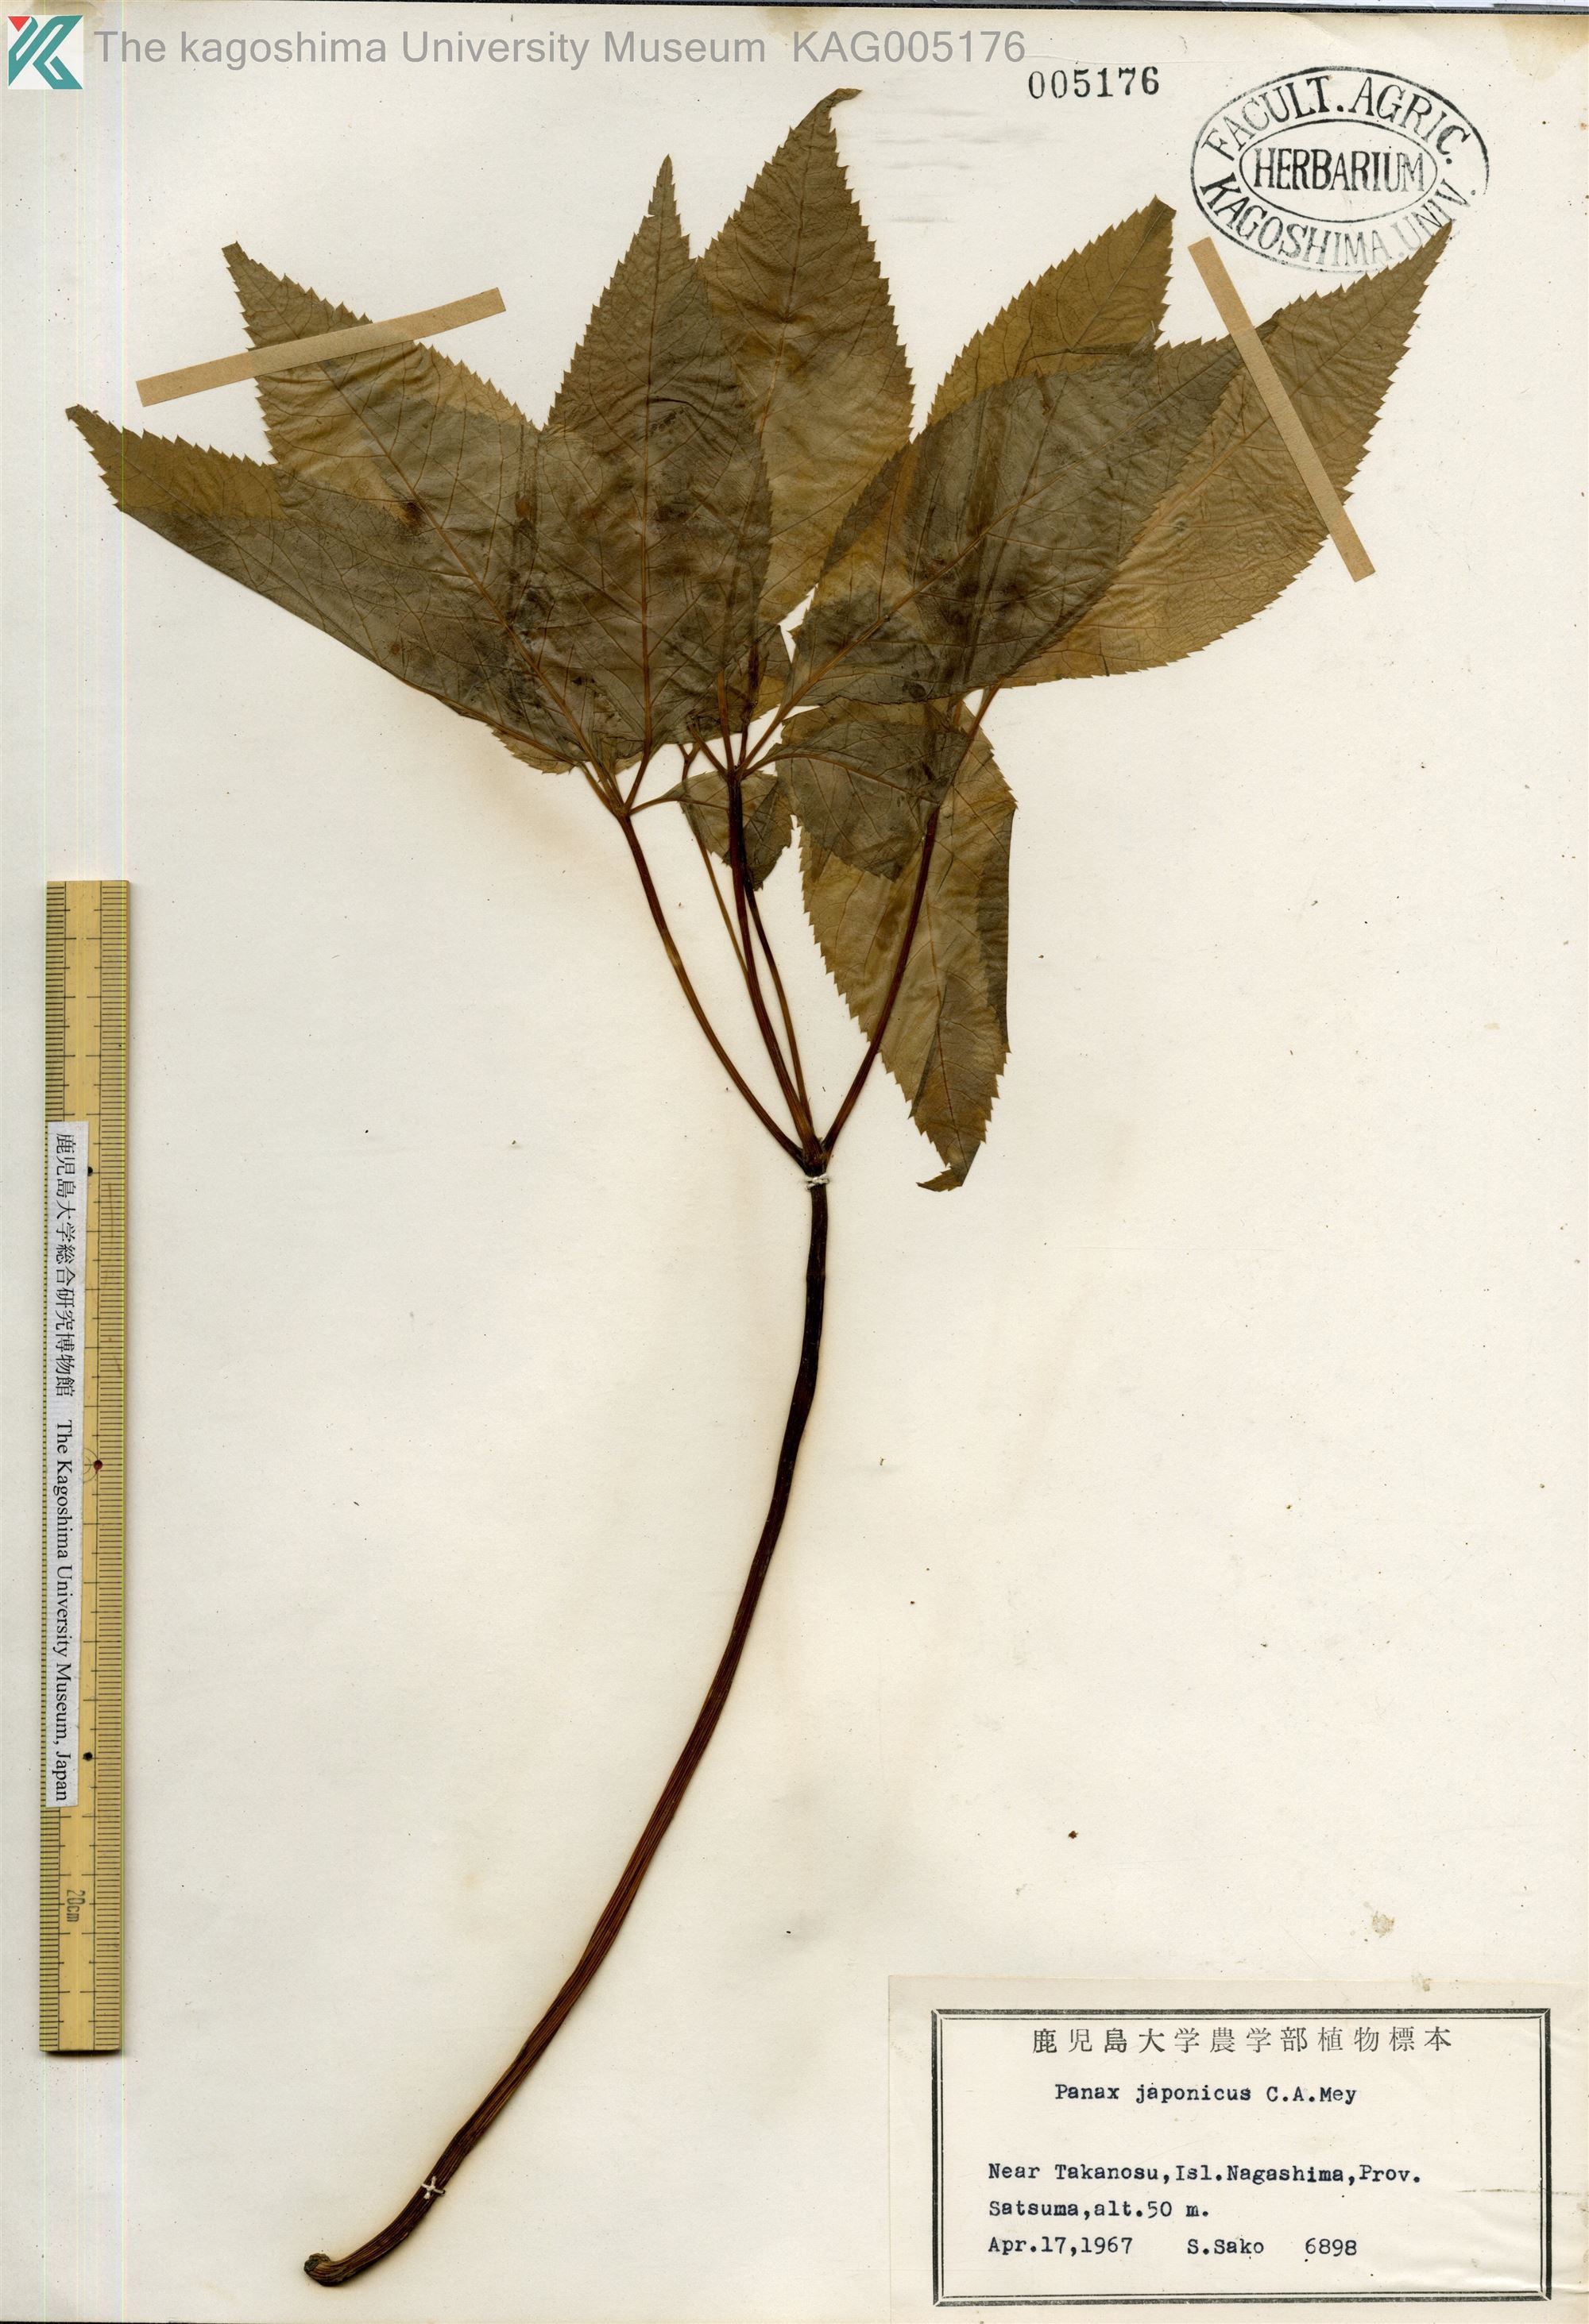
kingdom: Plantae
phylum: Tracheophyta
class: Magnoliopsida
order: Apiales
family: Araliaceae
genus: Panax
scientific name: Panax japonicus
